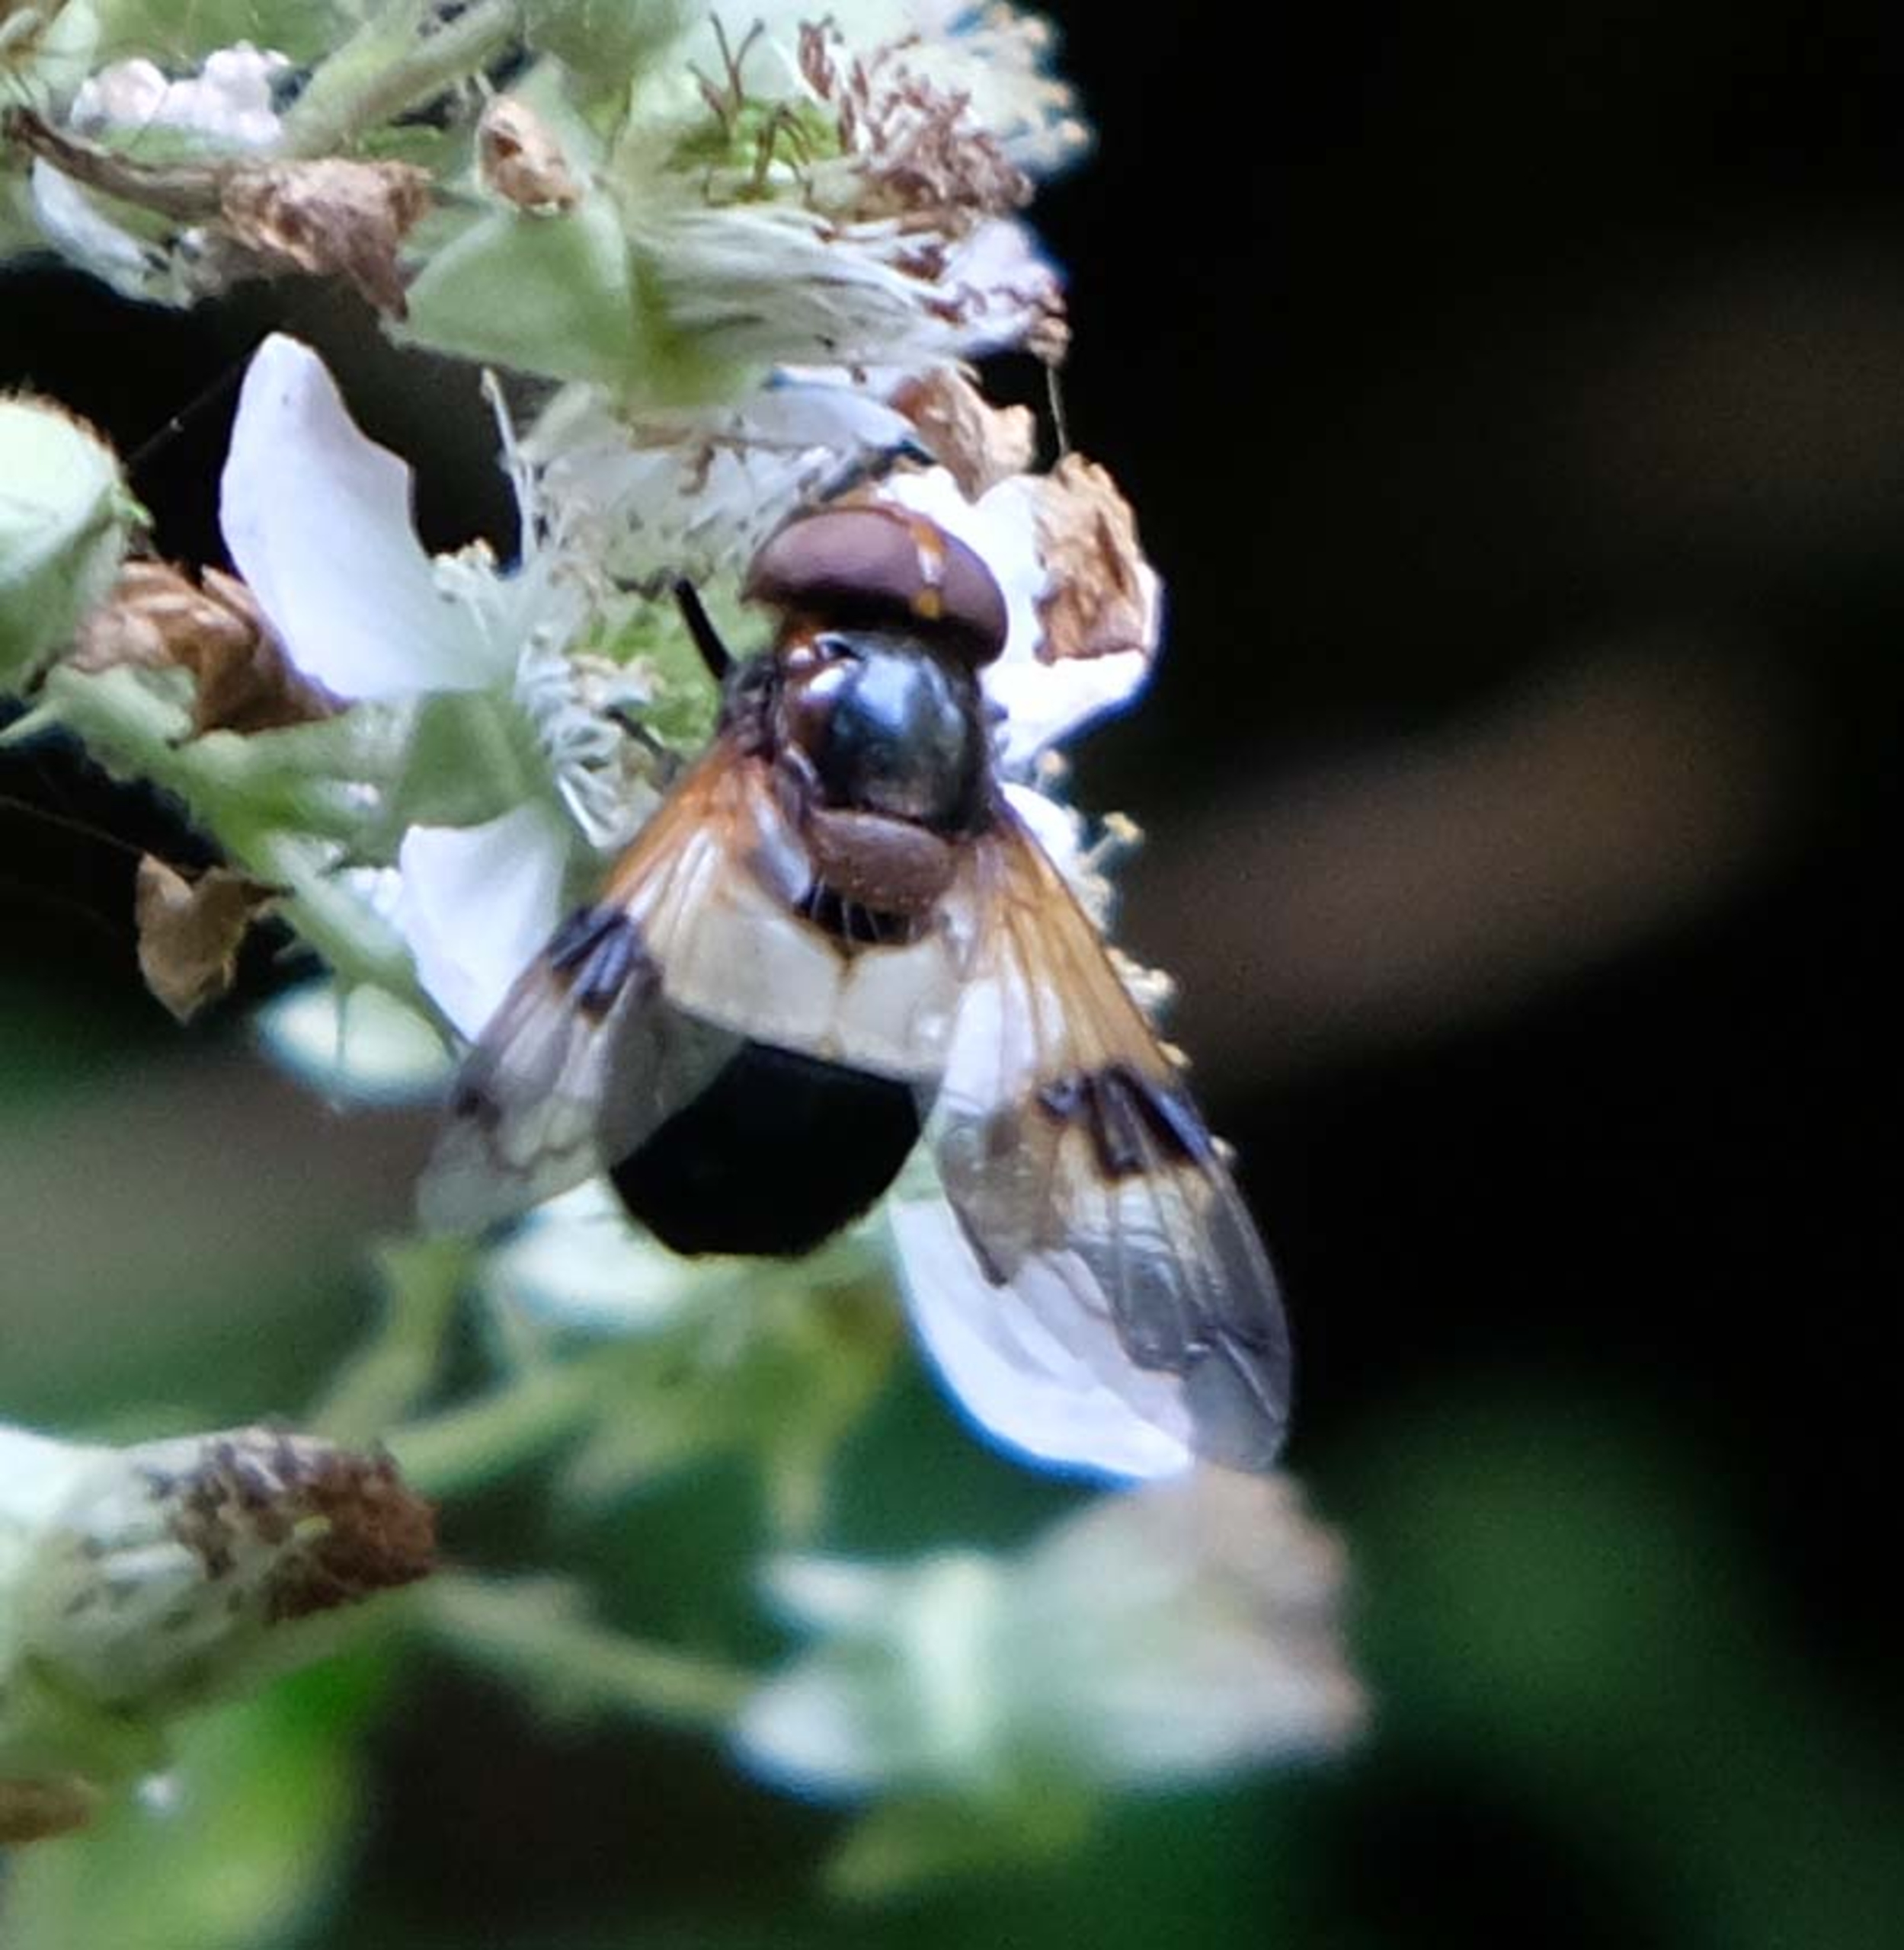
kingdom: Animalia
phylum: Arthropoda
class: Insecta
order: Diptera
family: Syrphidae
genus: Volucella
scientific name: Volucella pellucens
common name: Hvidbåndet humlesvirreflue
